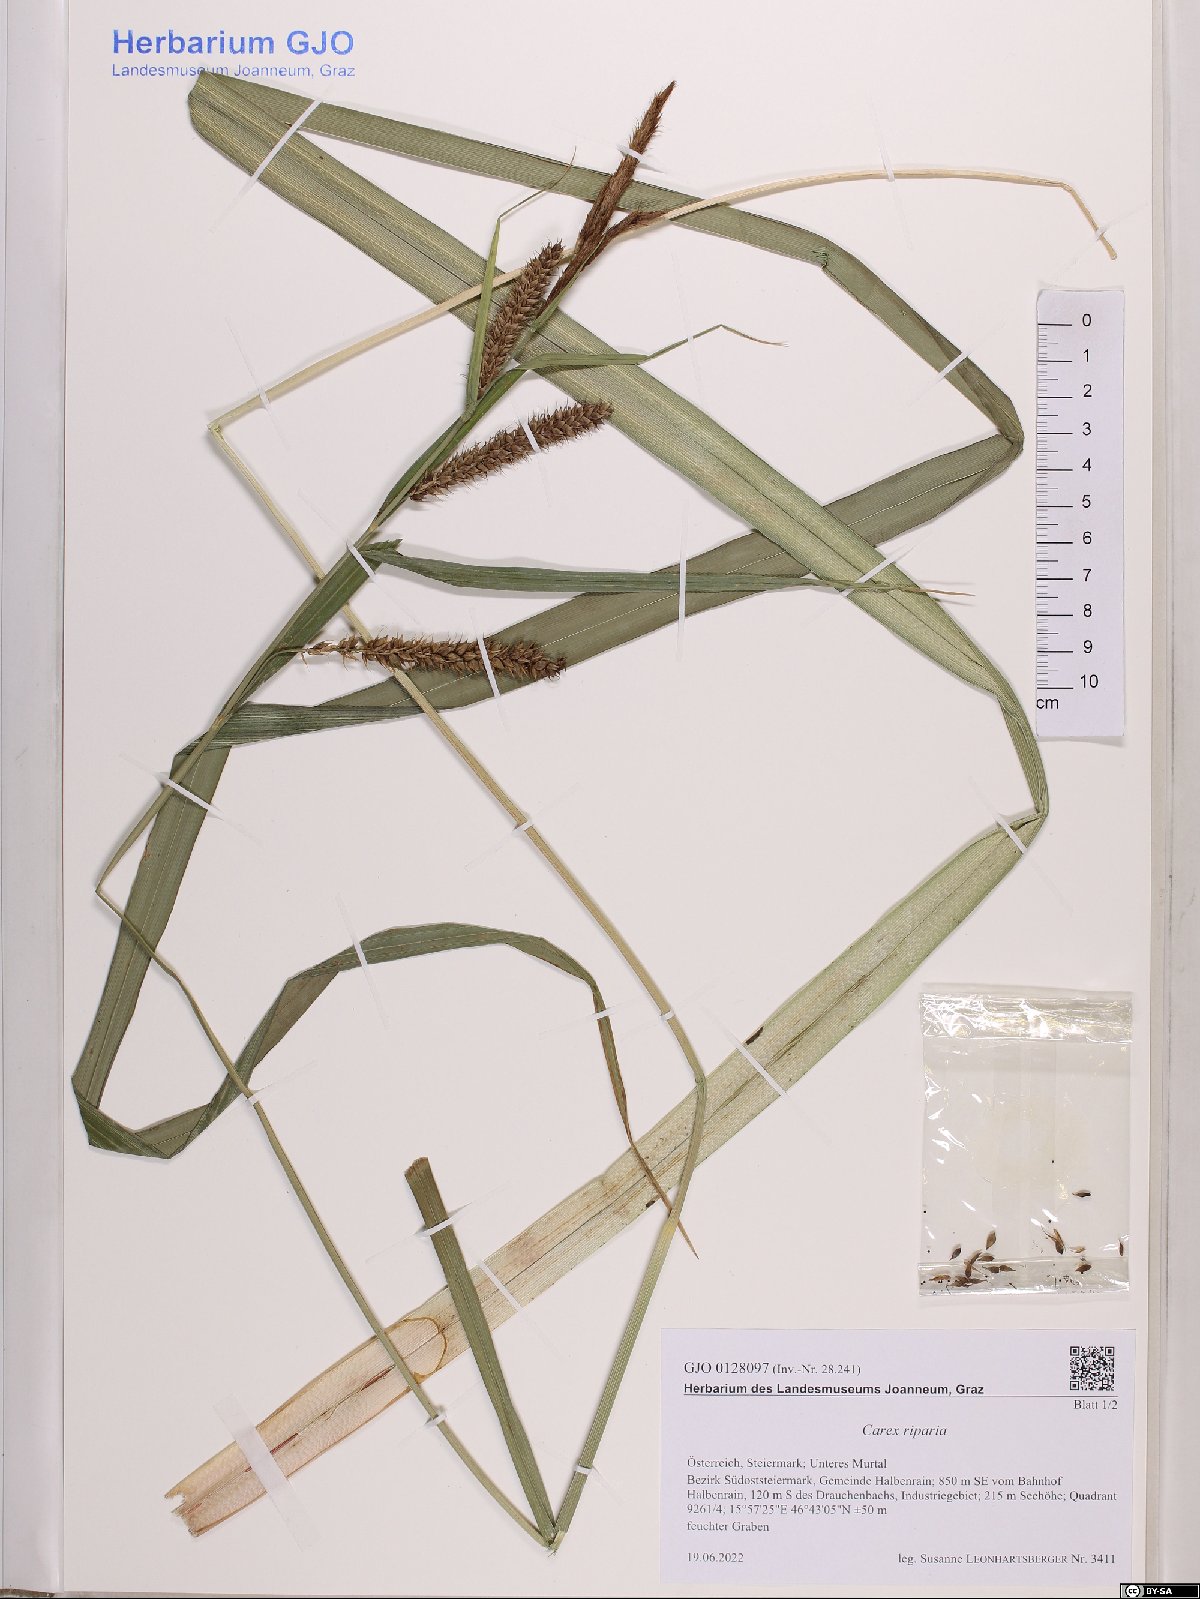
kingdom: Plantae
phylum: Tracheophyta
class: Liliopsida
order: Poales
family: Cyperaceae
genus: Carex
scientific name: Carex riparia
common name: Greater pond-sedge
